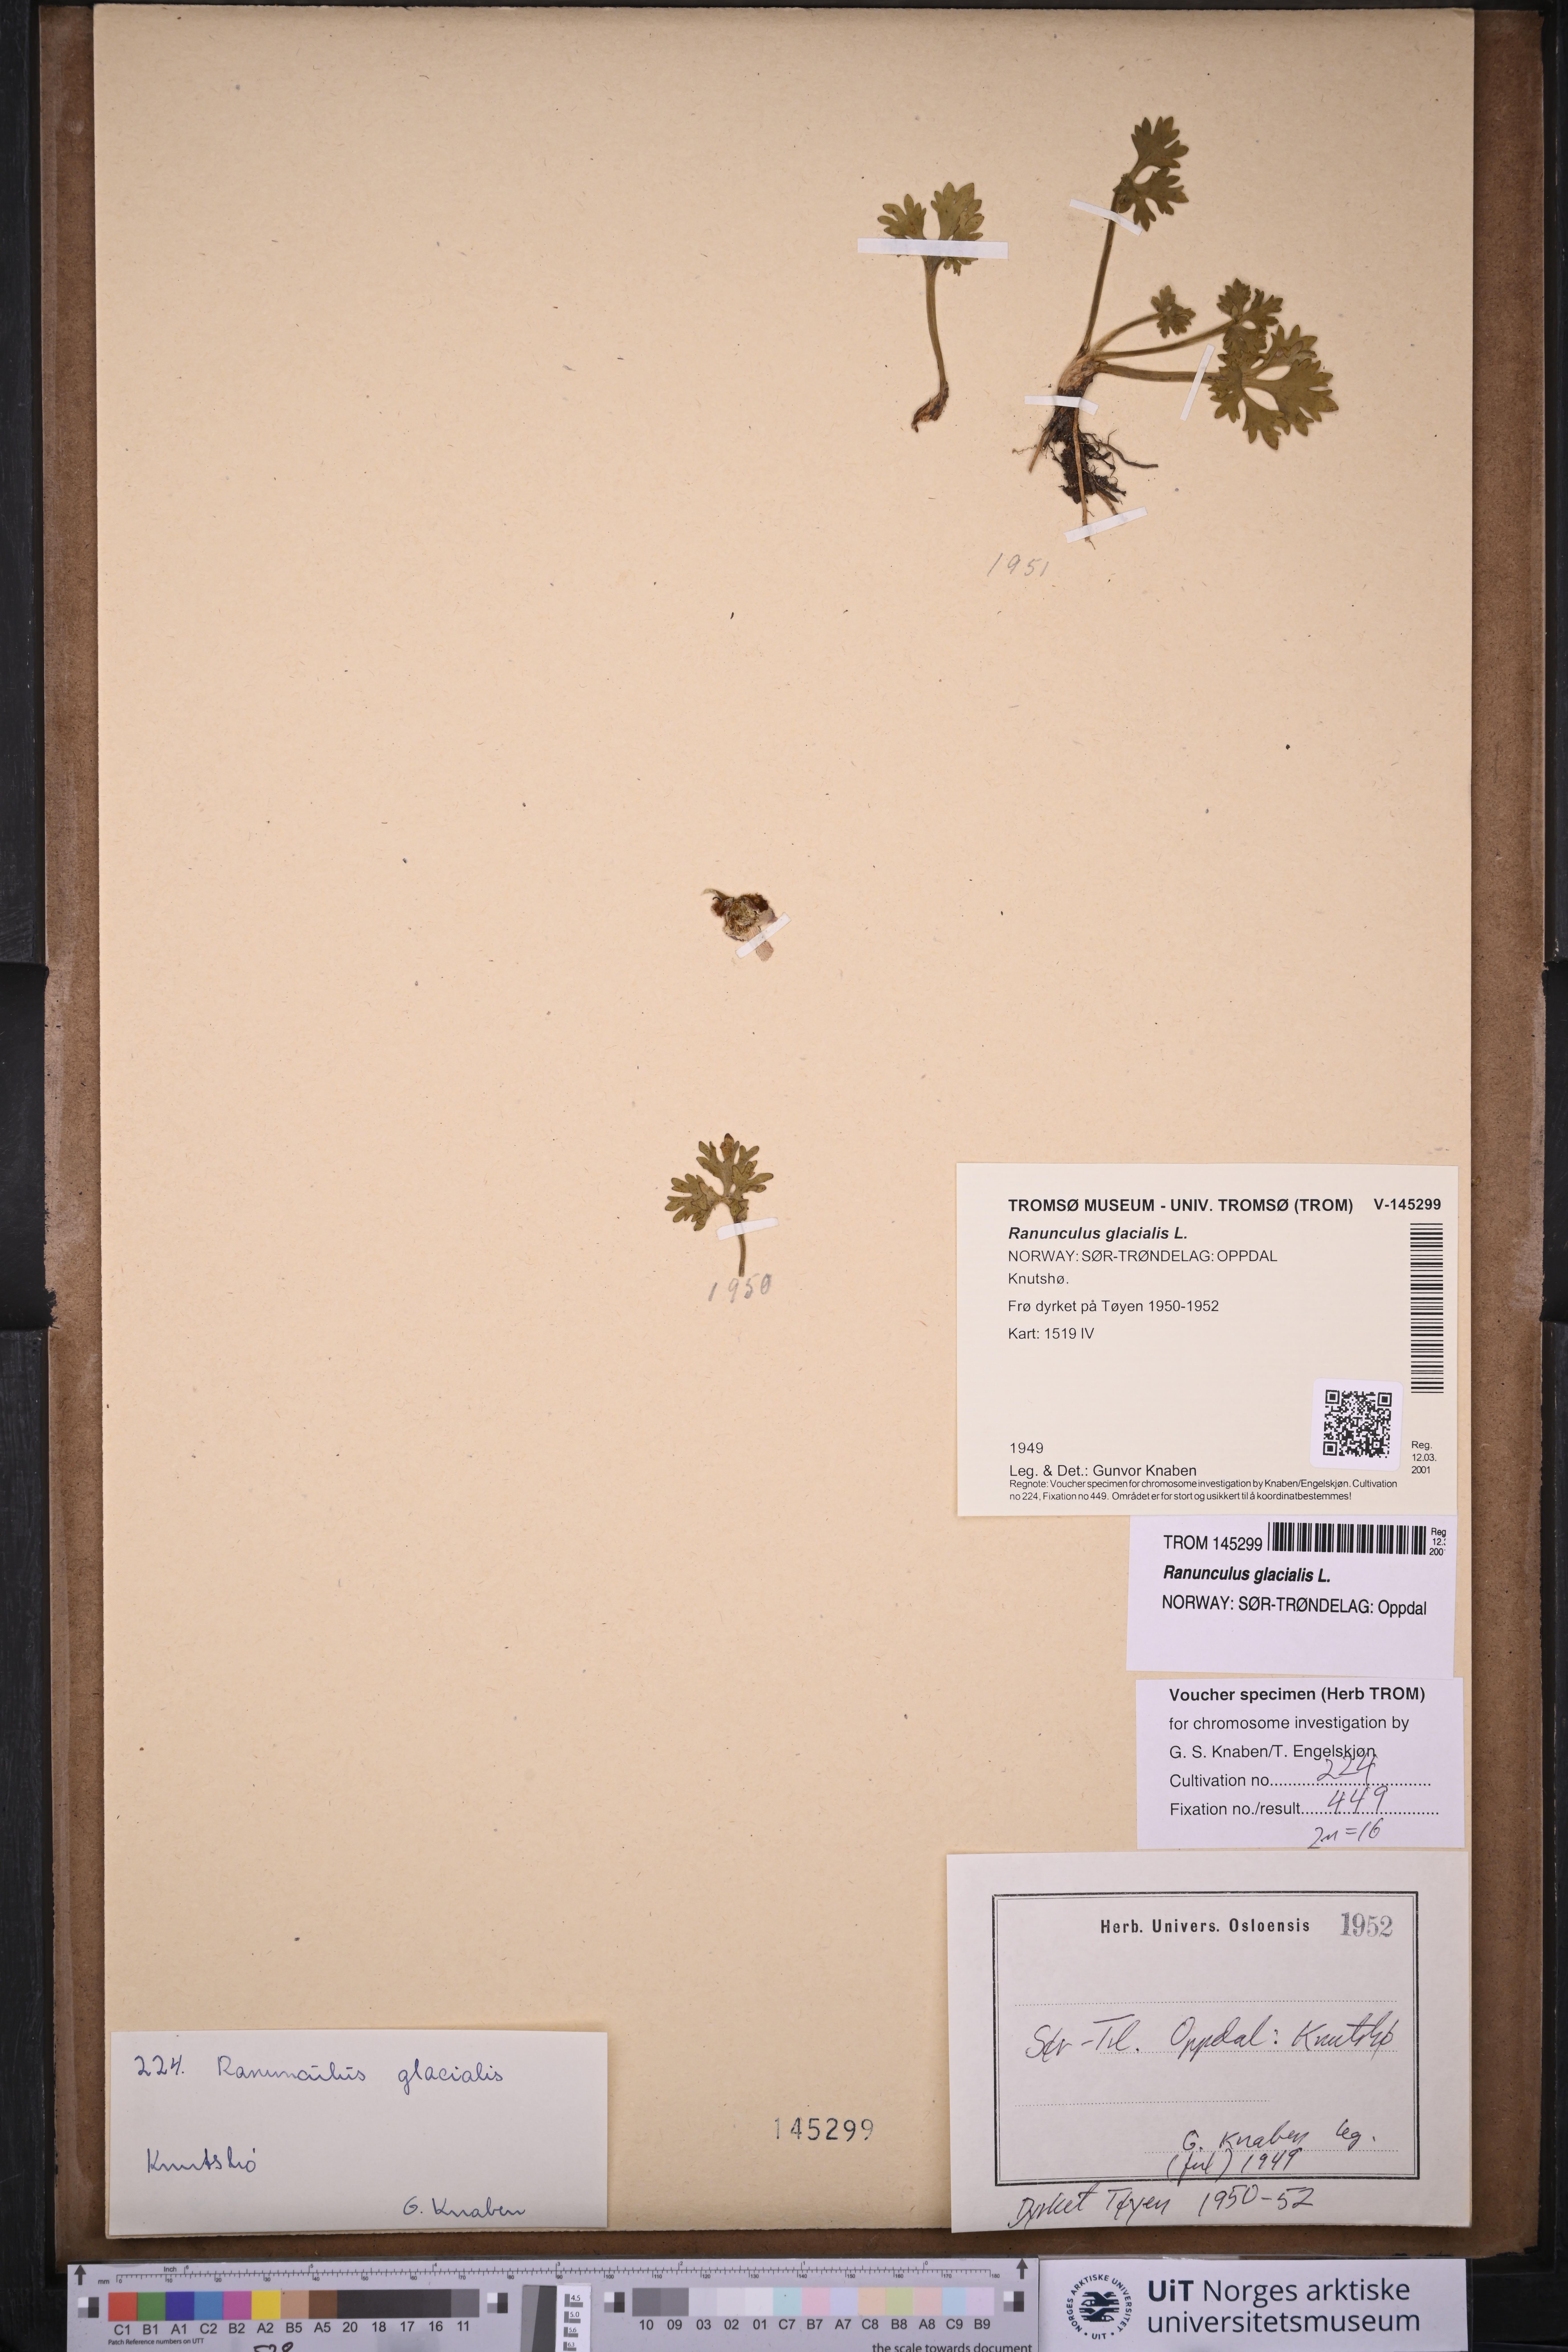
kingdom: Plantae
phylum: Tracheophyta
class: Magnoliopsida
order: Ranunculales
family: Ranunculaceae
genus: Ranunculus
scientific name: Ranunculus glacialis
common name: Glacier buttercup
